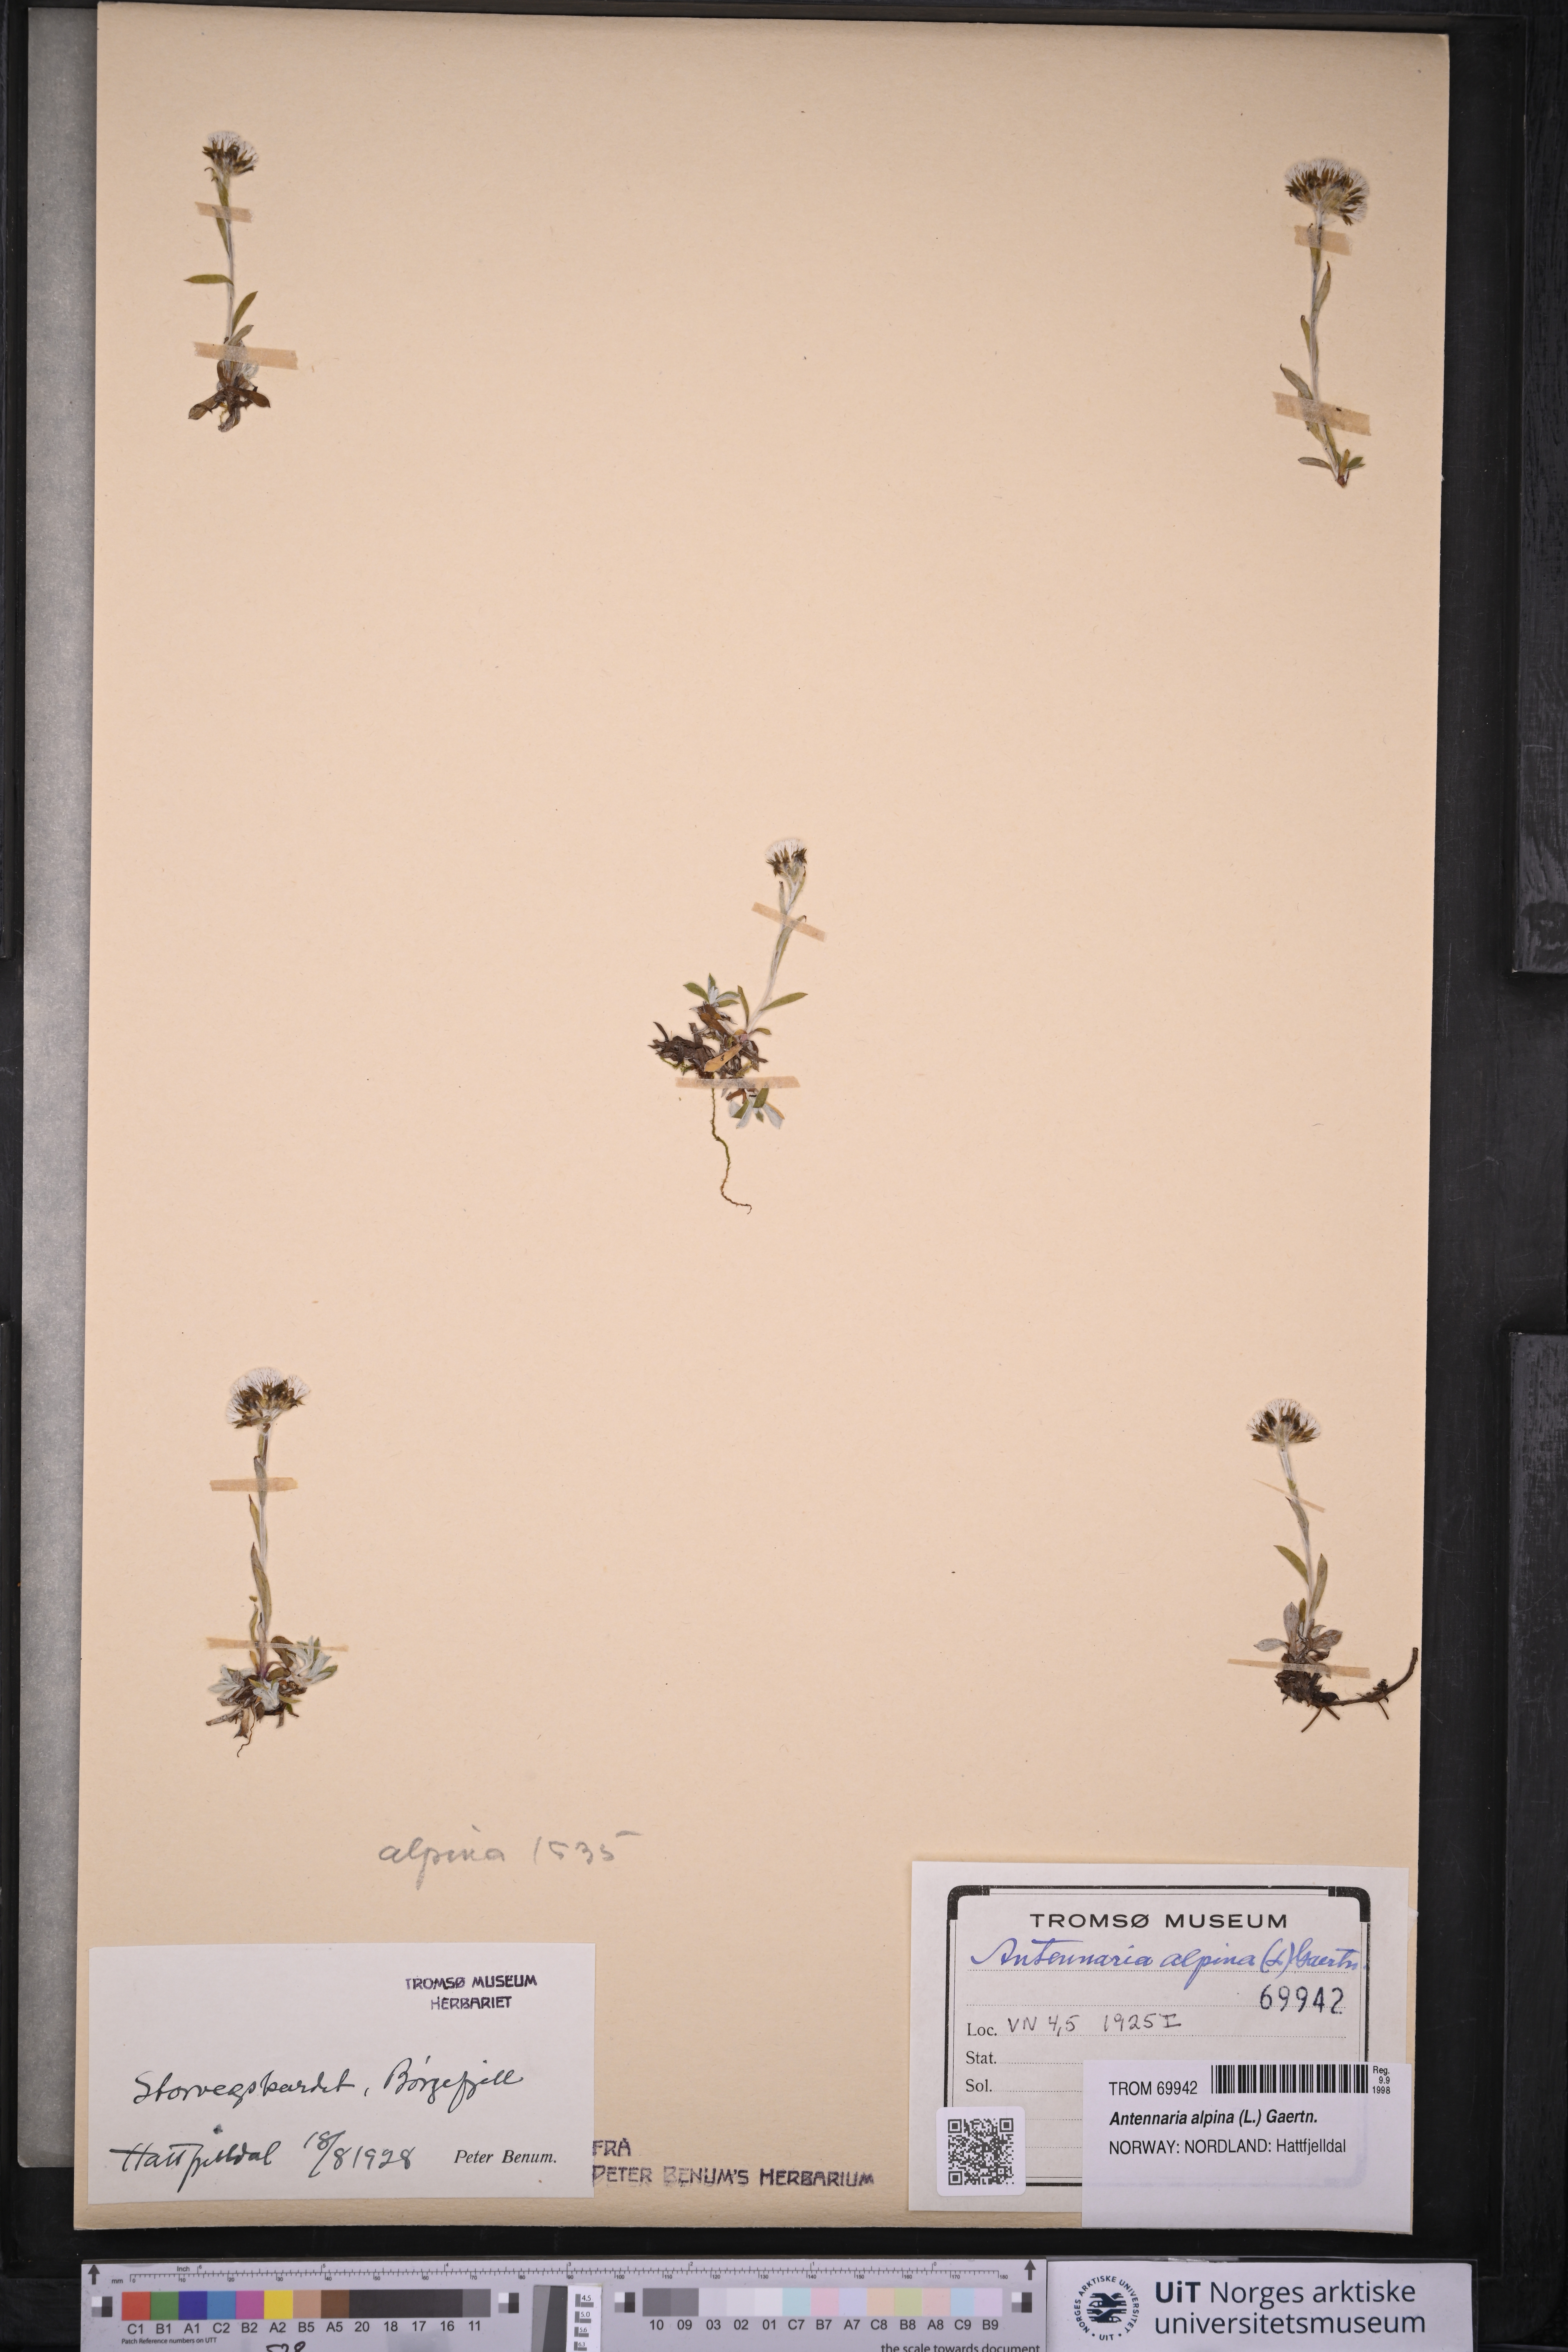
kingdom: Plantae
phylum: Tracheophyta
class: Magnoliopsida
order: Asterales
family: Asteraceae
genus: Antennaria
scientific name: Antennaria alpina
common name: Alpine pussytoes
